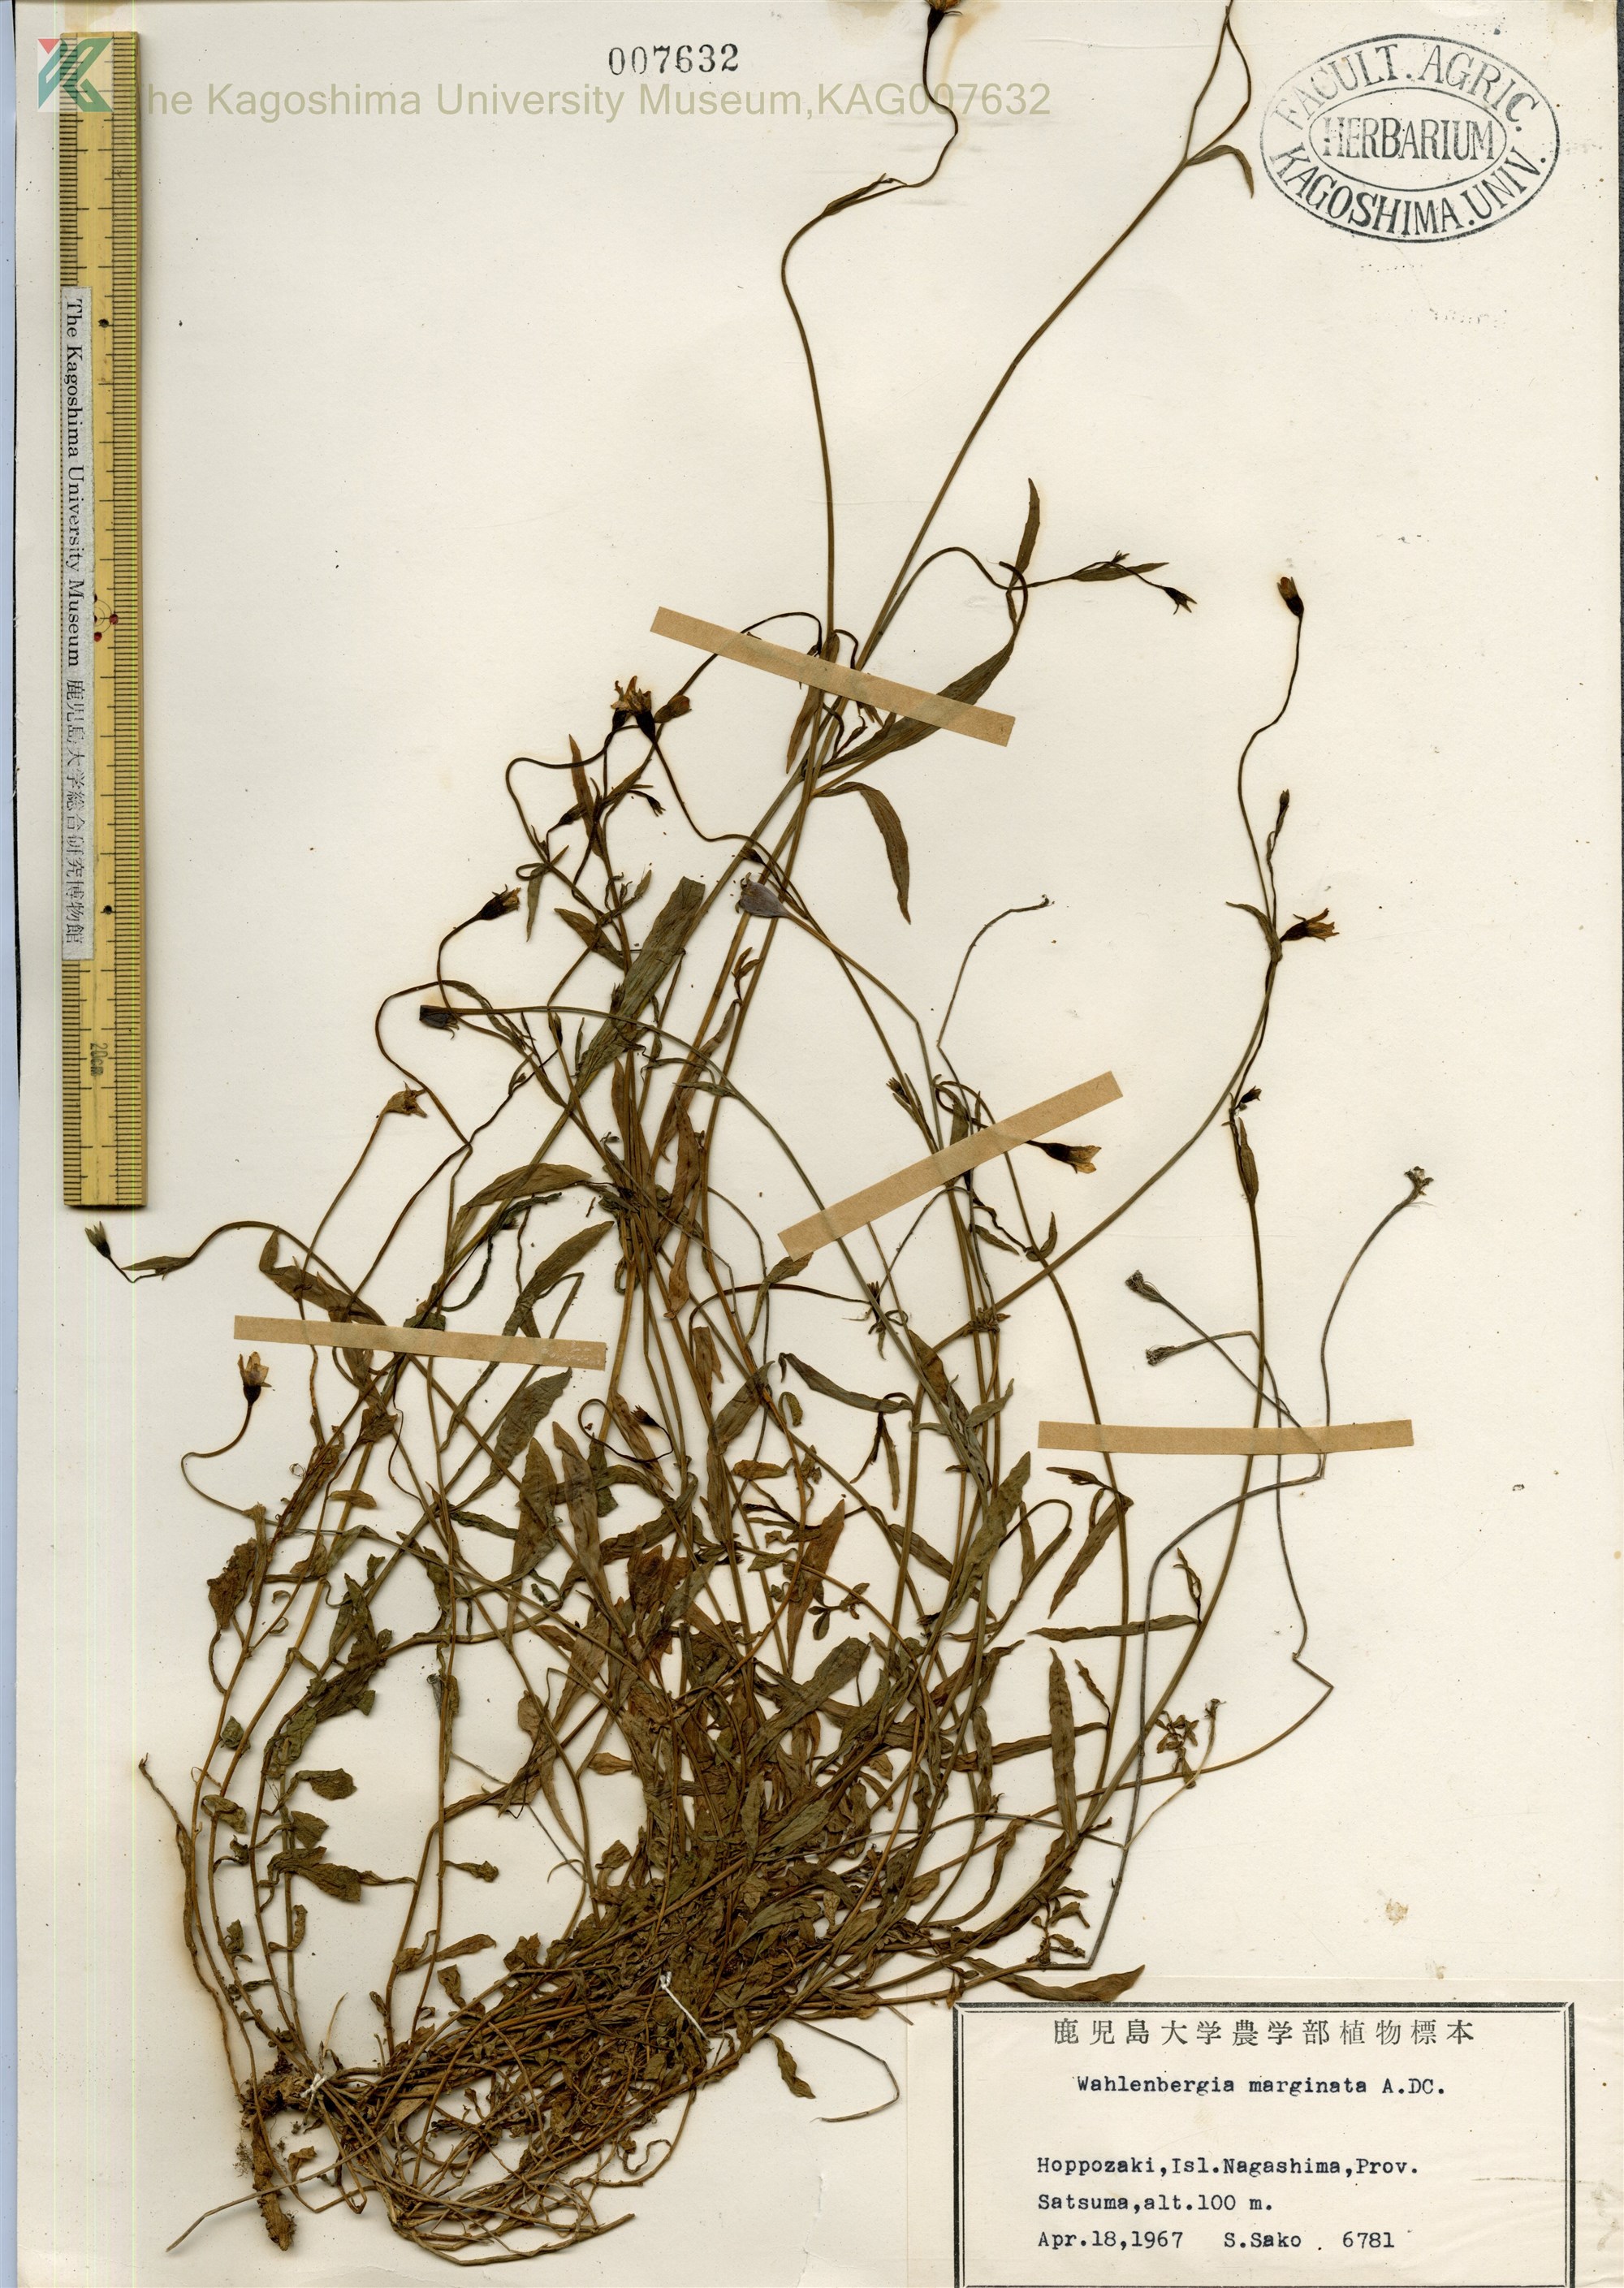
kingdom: Plantae
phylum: Tracheophyta
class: Magnoliopsida
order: Asterales
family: Campanulaceae
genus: Wahlenbergia
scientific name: Wahlenbergia marginata
